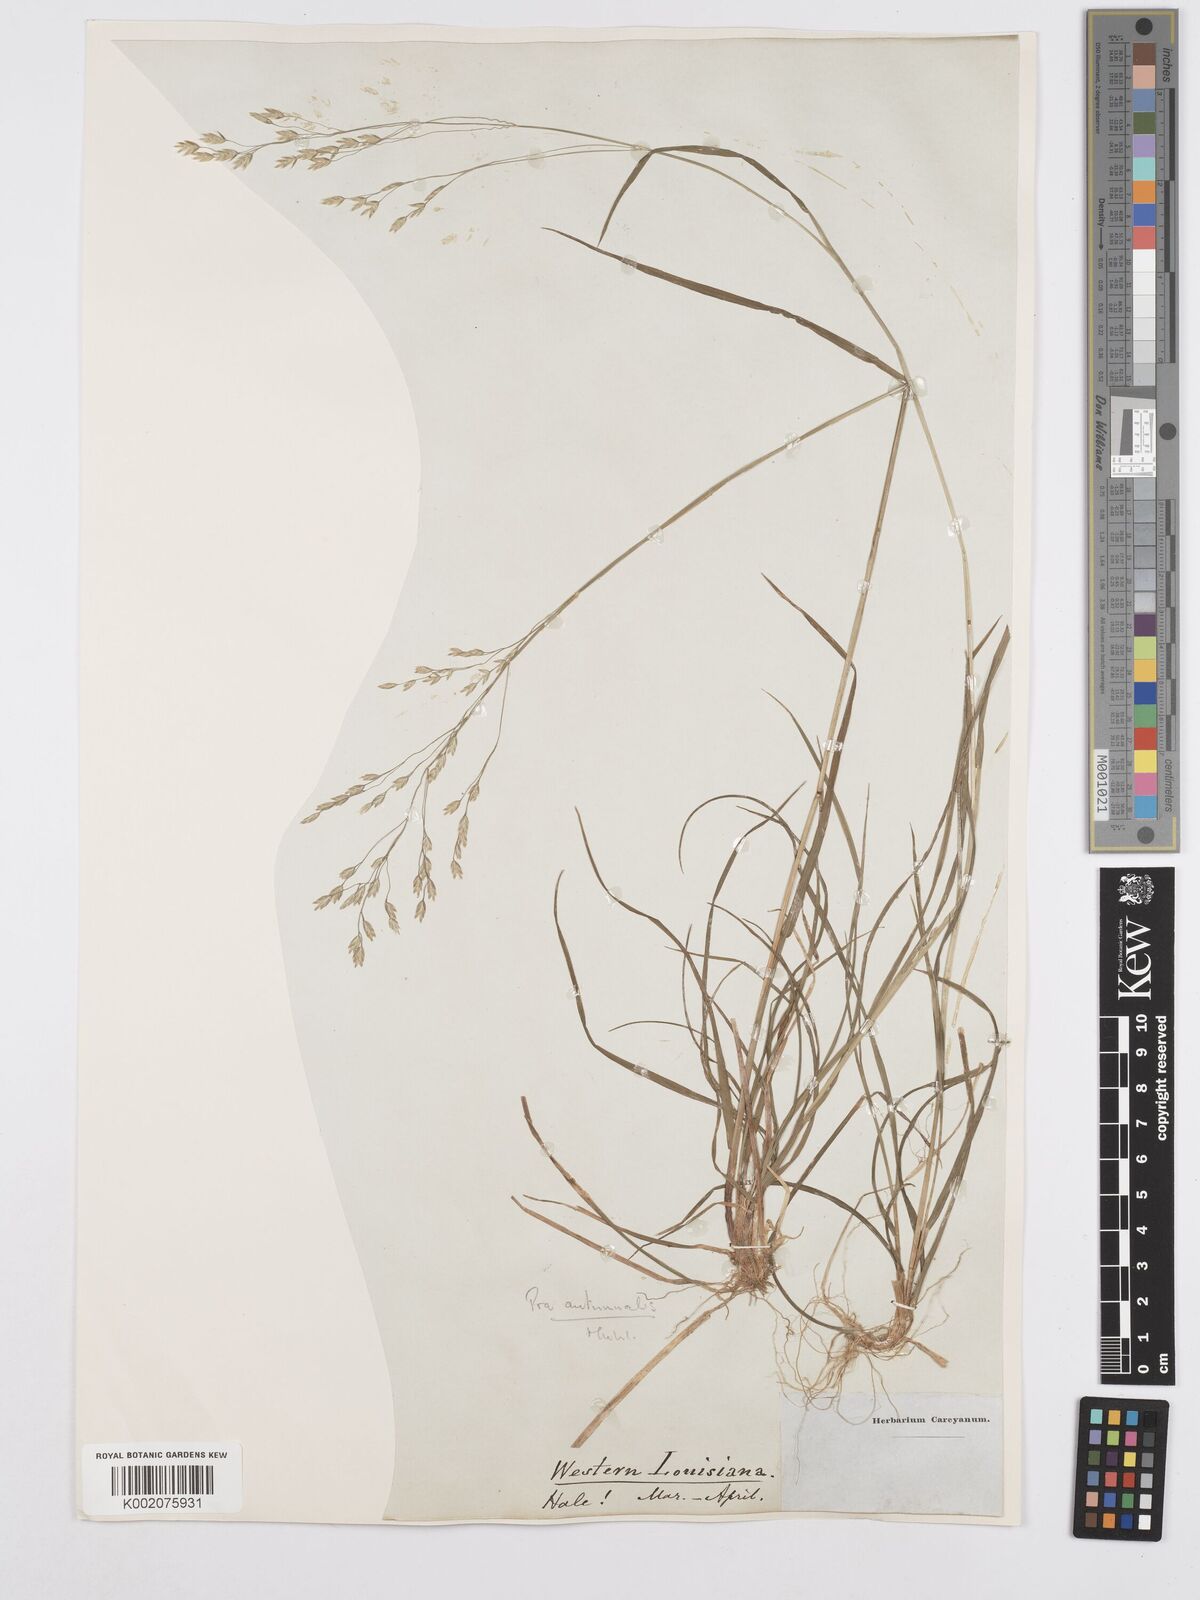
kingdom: Plantae
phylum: Tracheophyta
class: Liliopsida
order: Poales
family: Poaceae
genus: Poa
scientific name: Poa autumnalis
